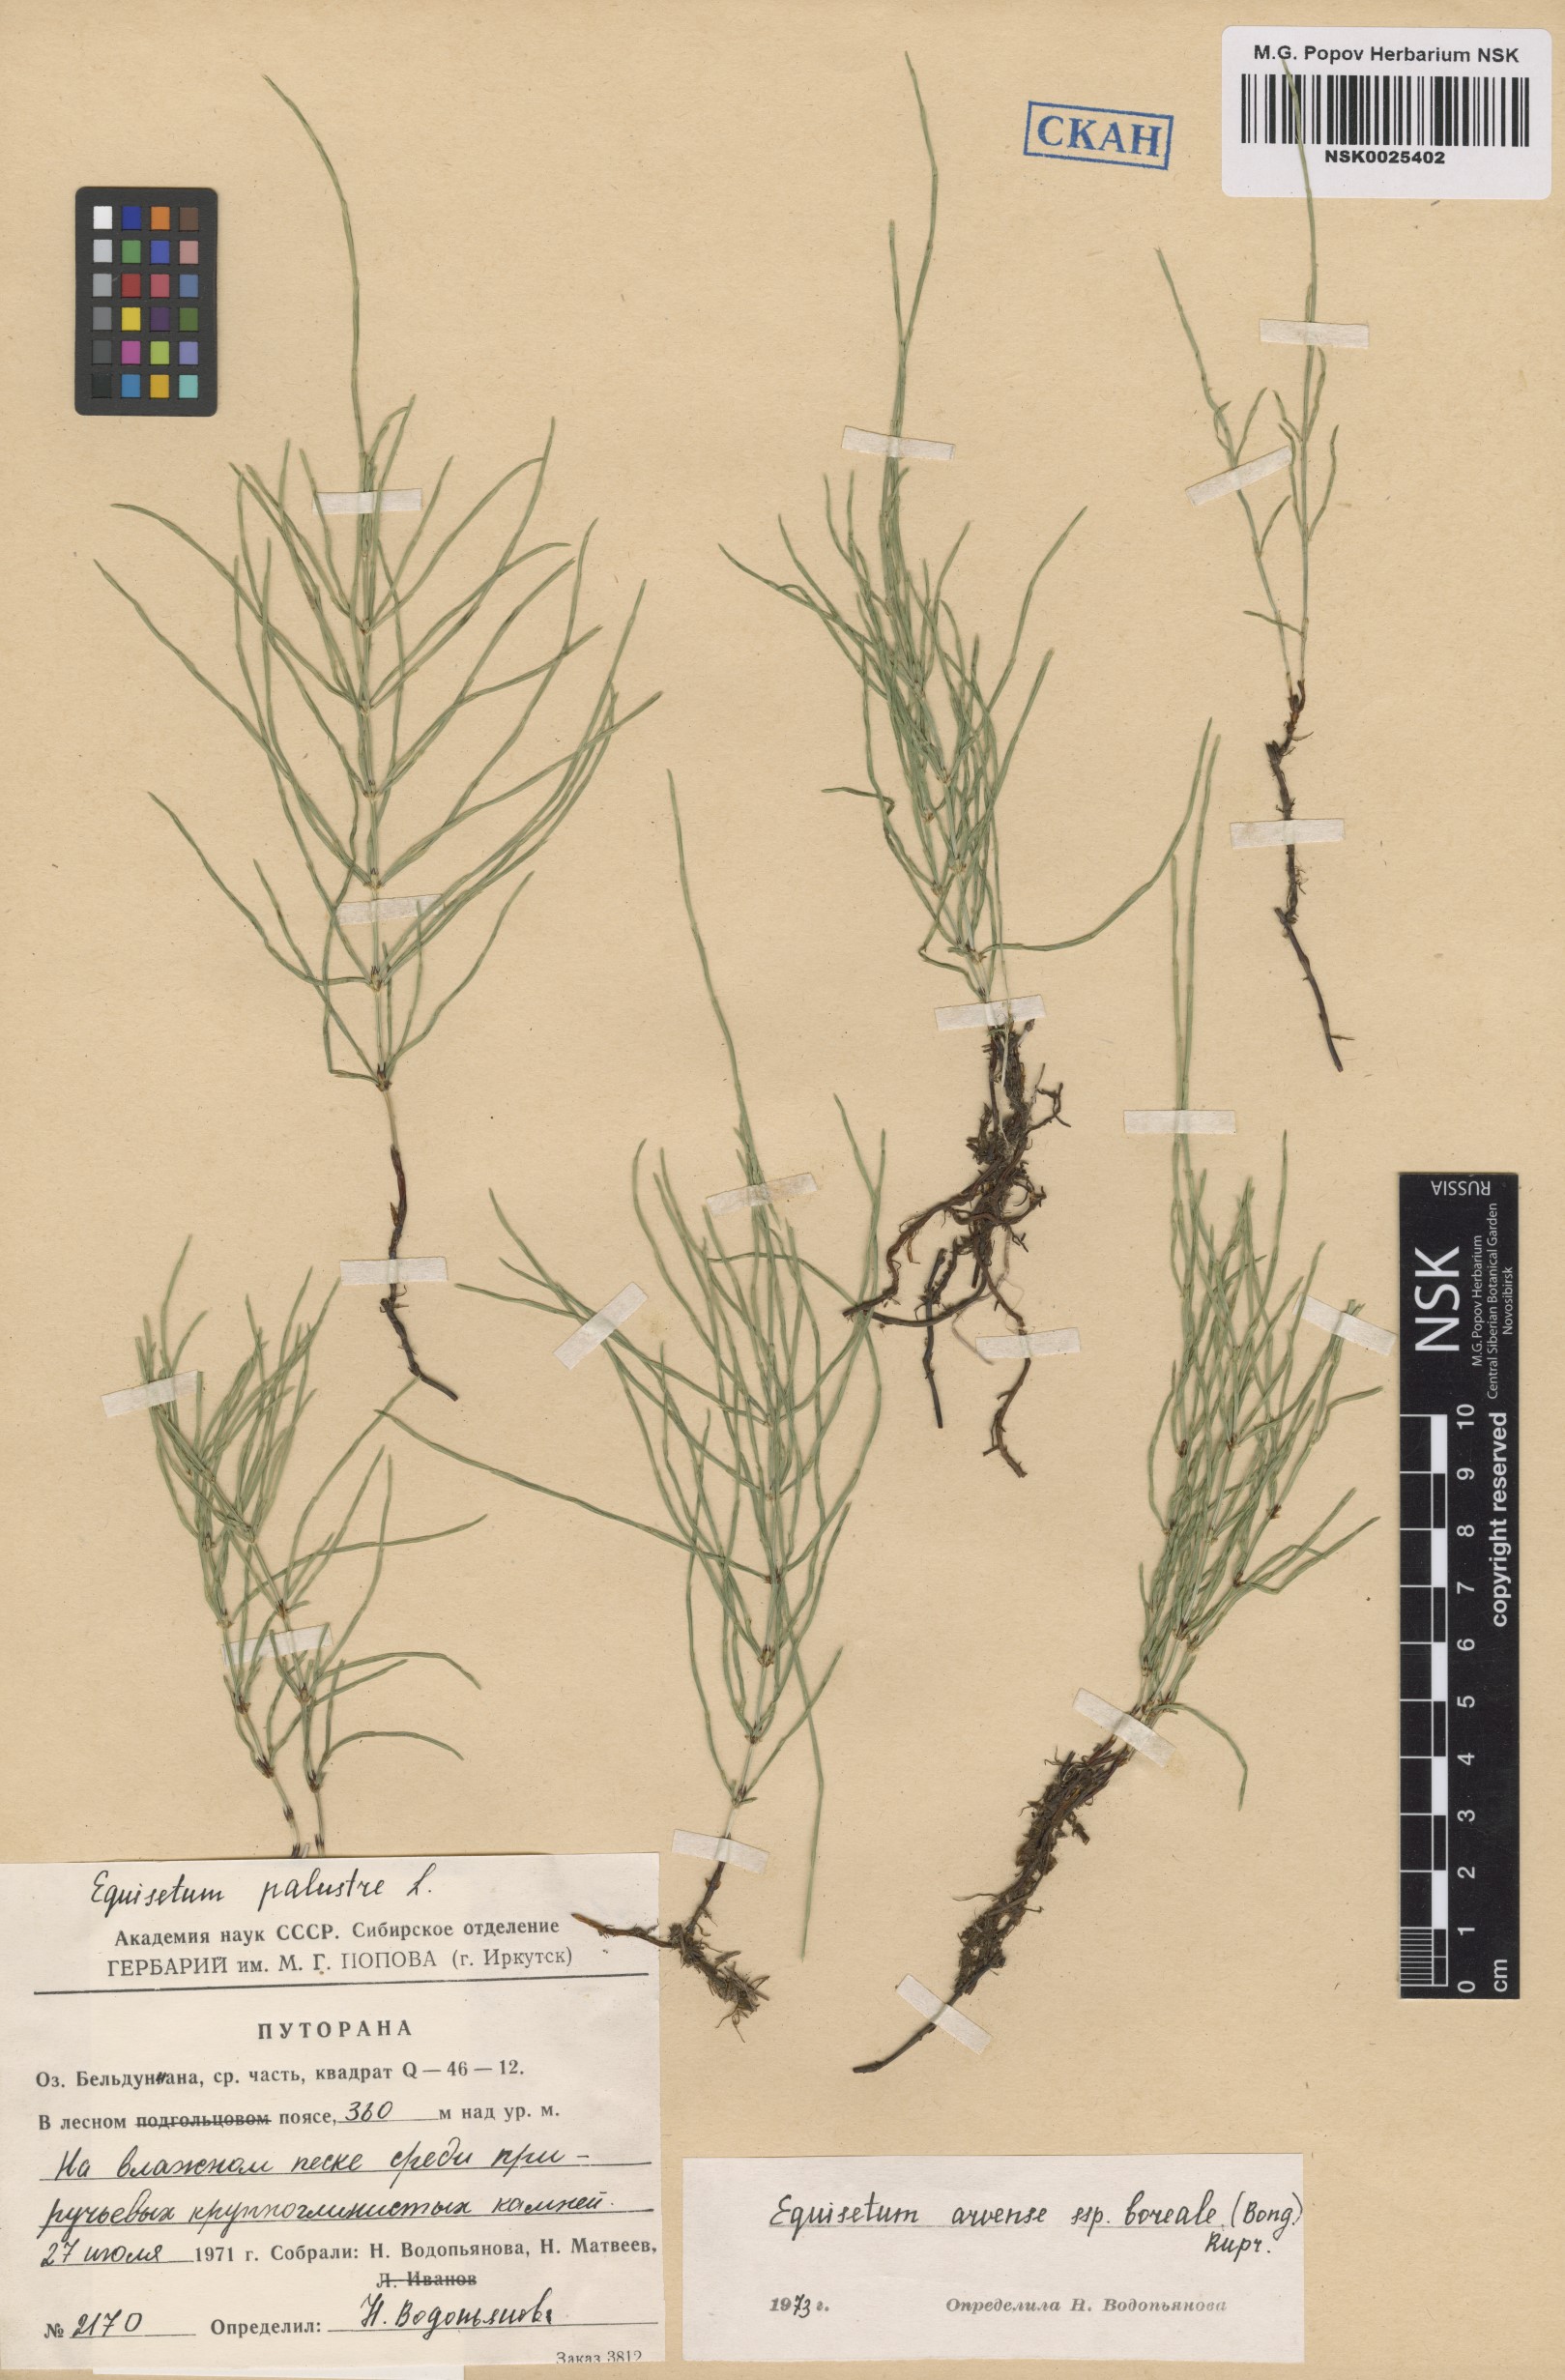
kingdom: Plantae
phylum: Tracheophyta
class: Polypodiopsida
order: Equisetales
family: Equisetaceae
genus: Equisetum
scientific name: Equisetum arvense
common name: Field horsetail
